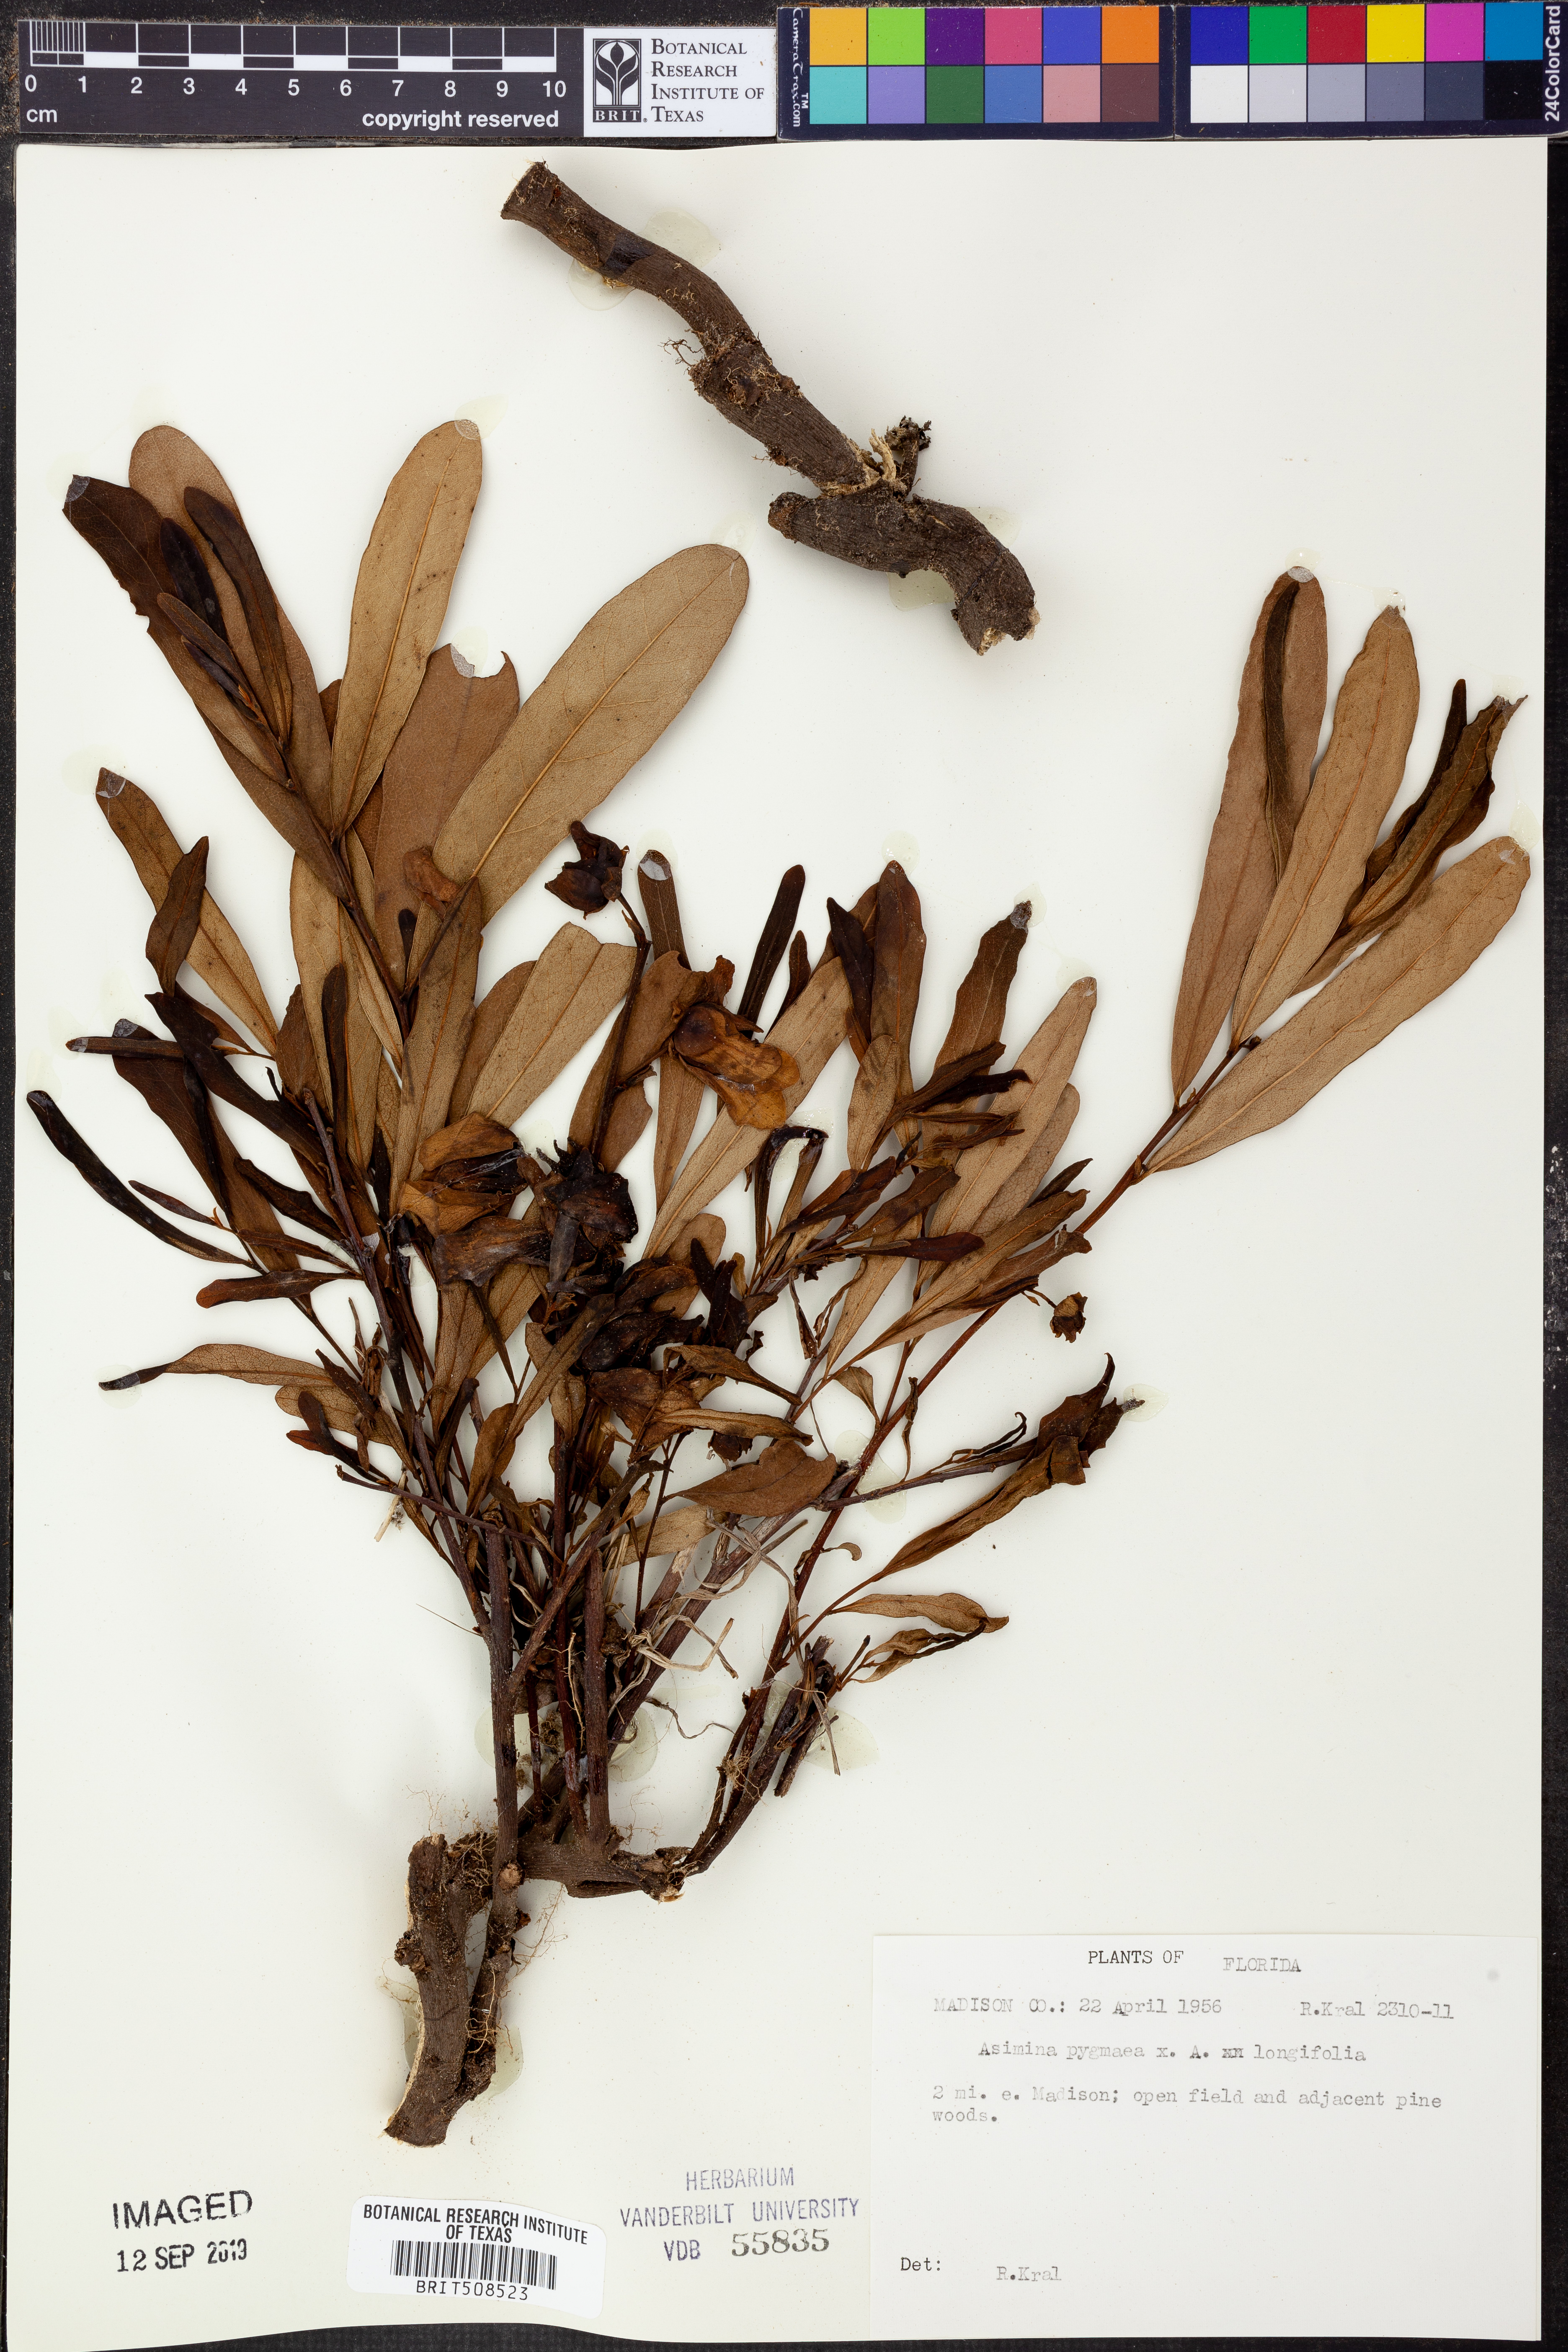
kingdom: Plantae
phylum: Tracheophyta
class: Magnoliopsida
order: Magnoliales
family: Annonaceae
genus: Asimina
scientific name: Asimina pygmaea
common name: Dwarf pawpaw
